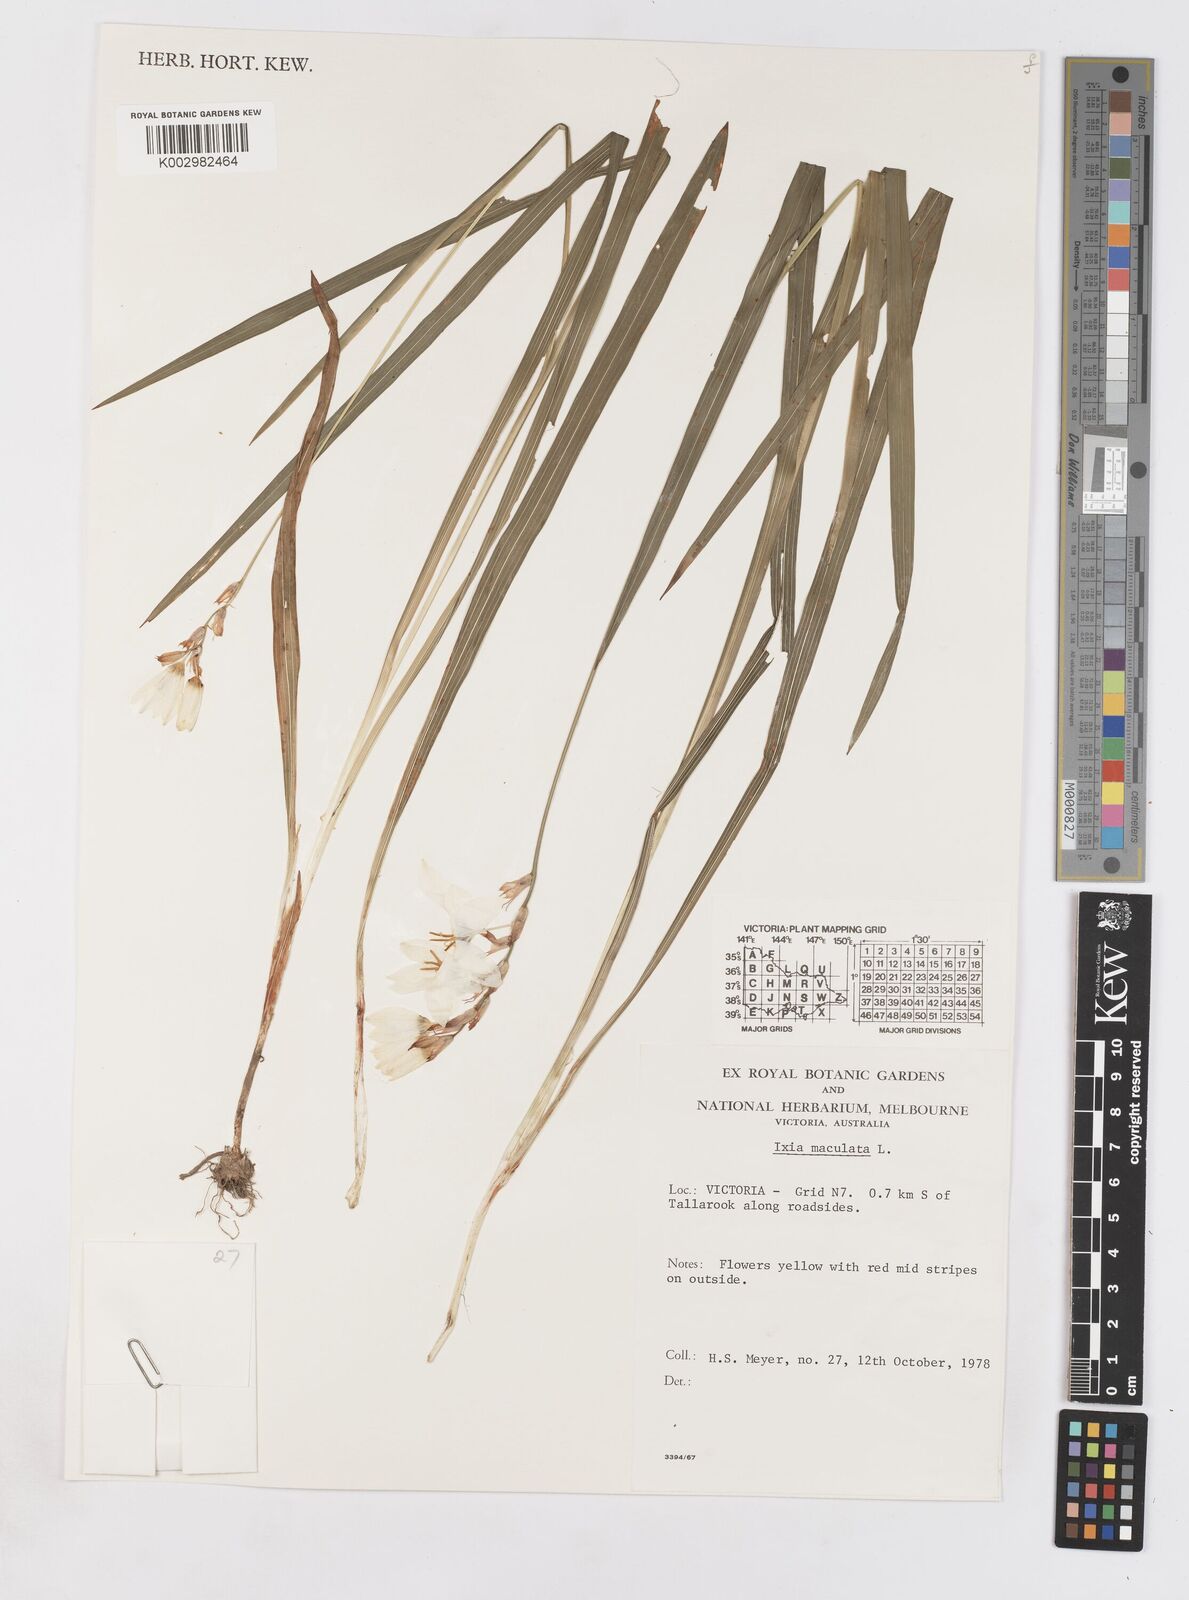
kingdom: Plantae
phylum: Tracheophyta
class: Liliopsida
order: Asparagales
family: Iridaceae
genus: Ixia
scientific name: Ixia maculata
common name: Spotted african cornlily
